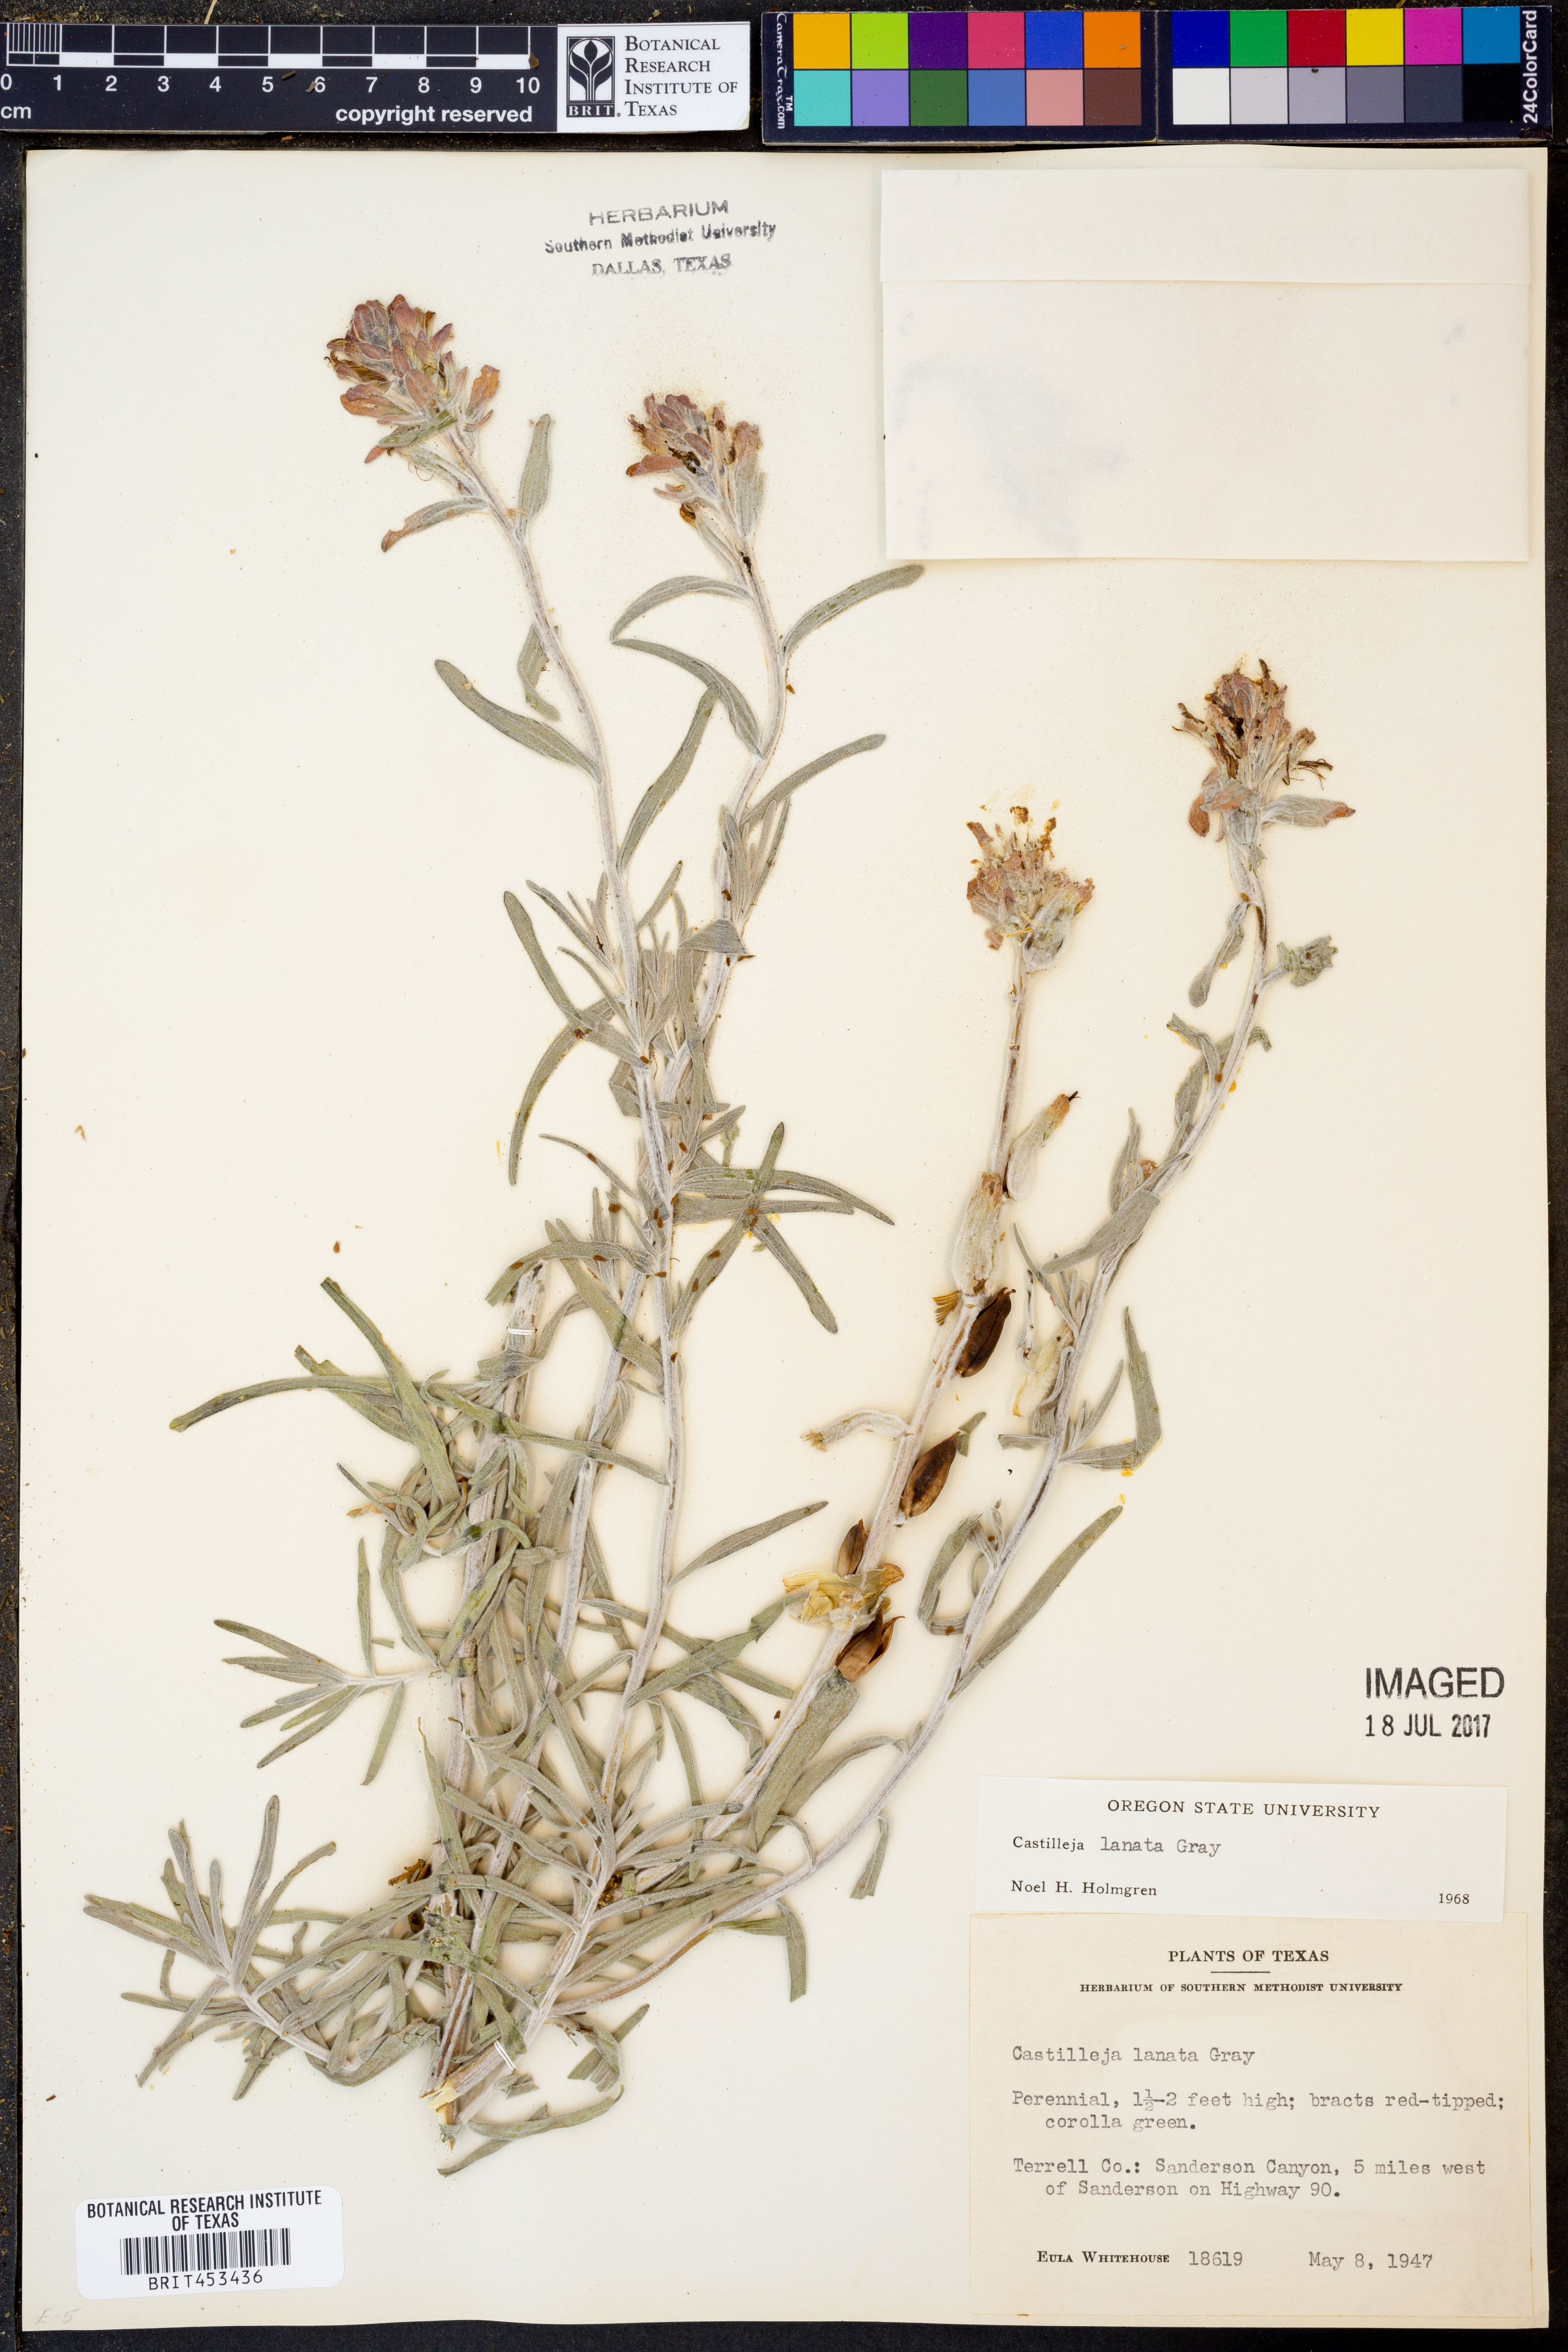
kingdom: Plantae
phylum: Tracheophyta
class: Magnoliopsida
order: Lamiales
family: Orobanchaceae
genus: Castilleja
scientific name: Castilleja lanata
